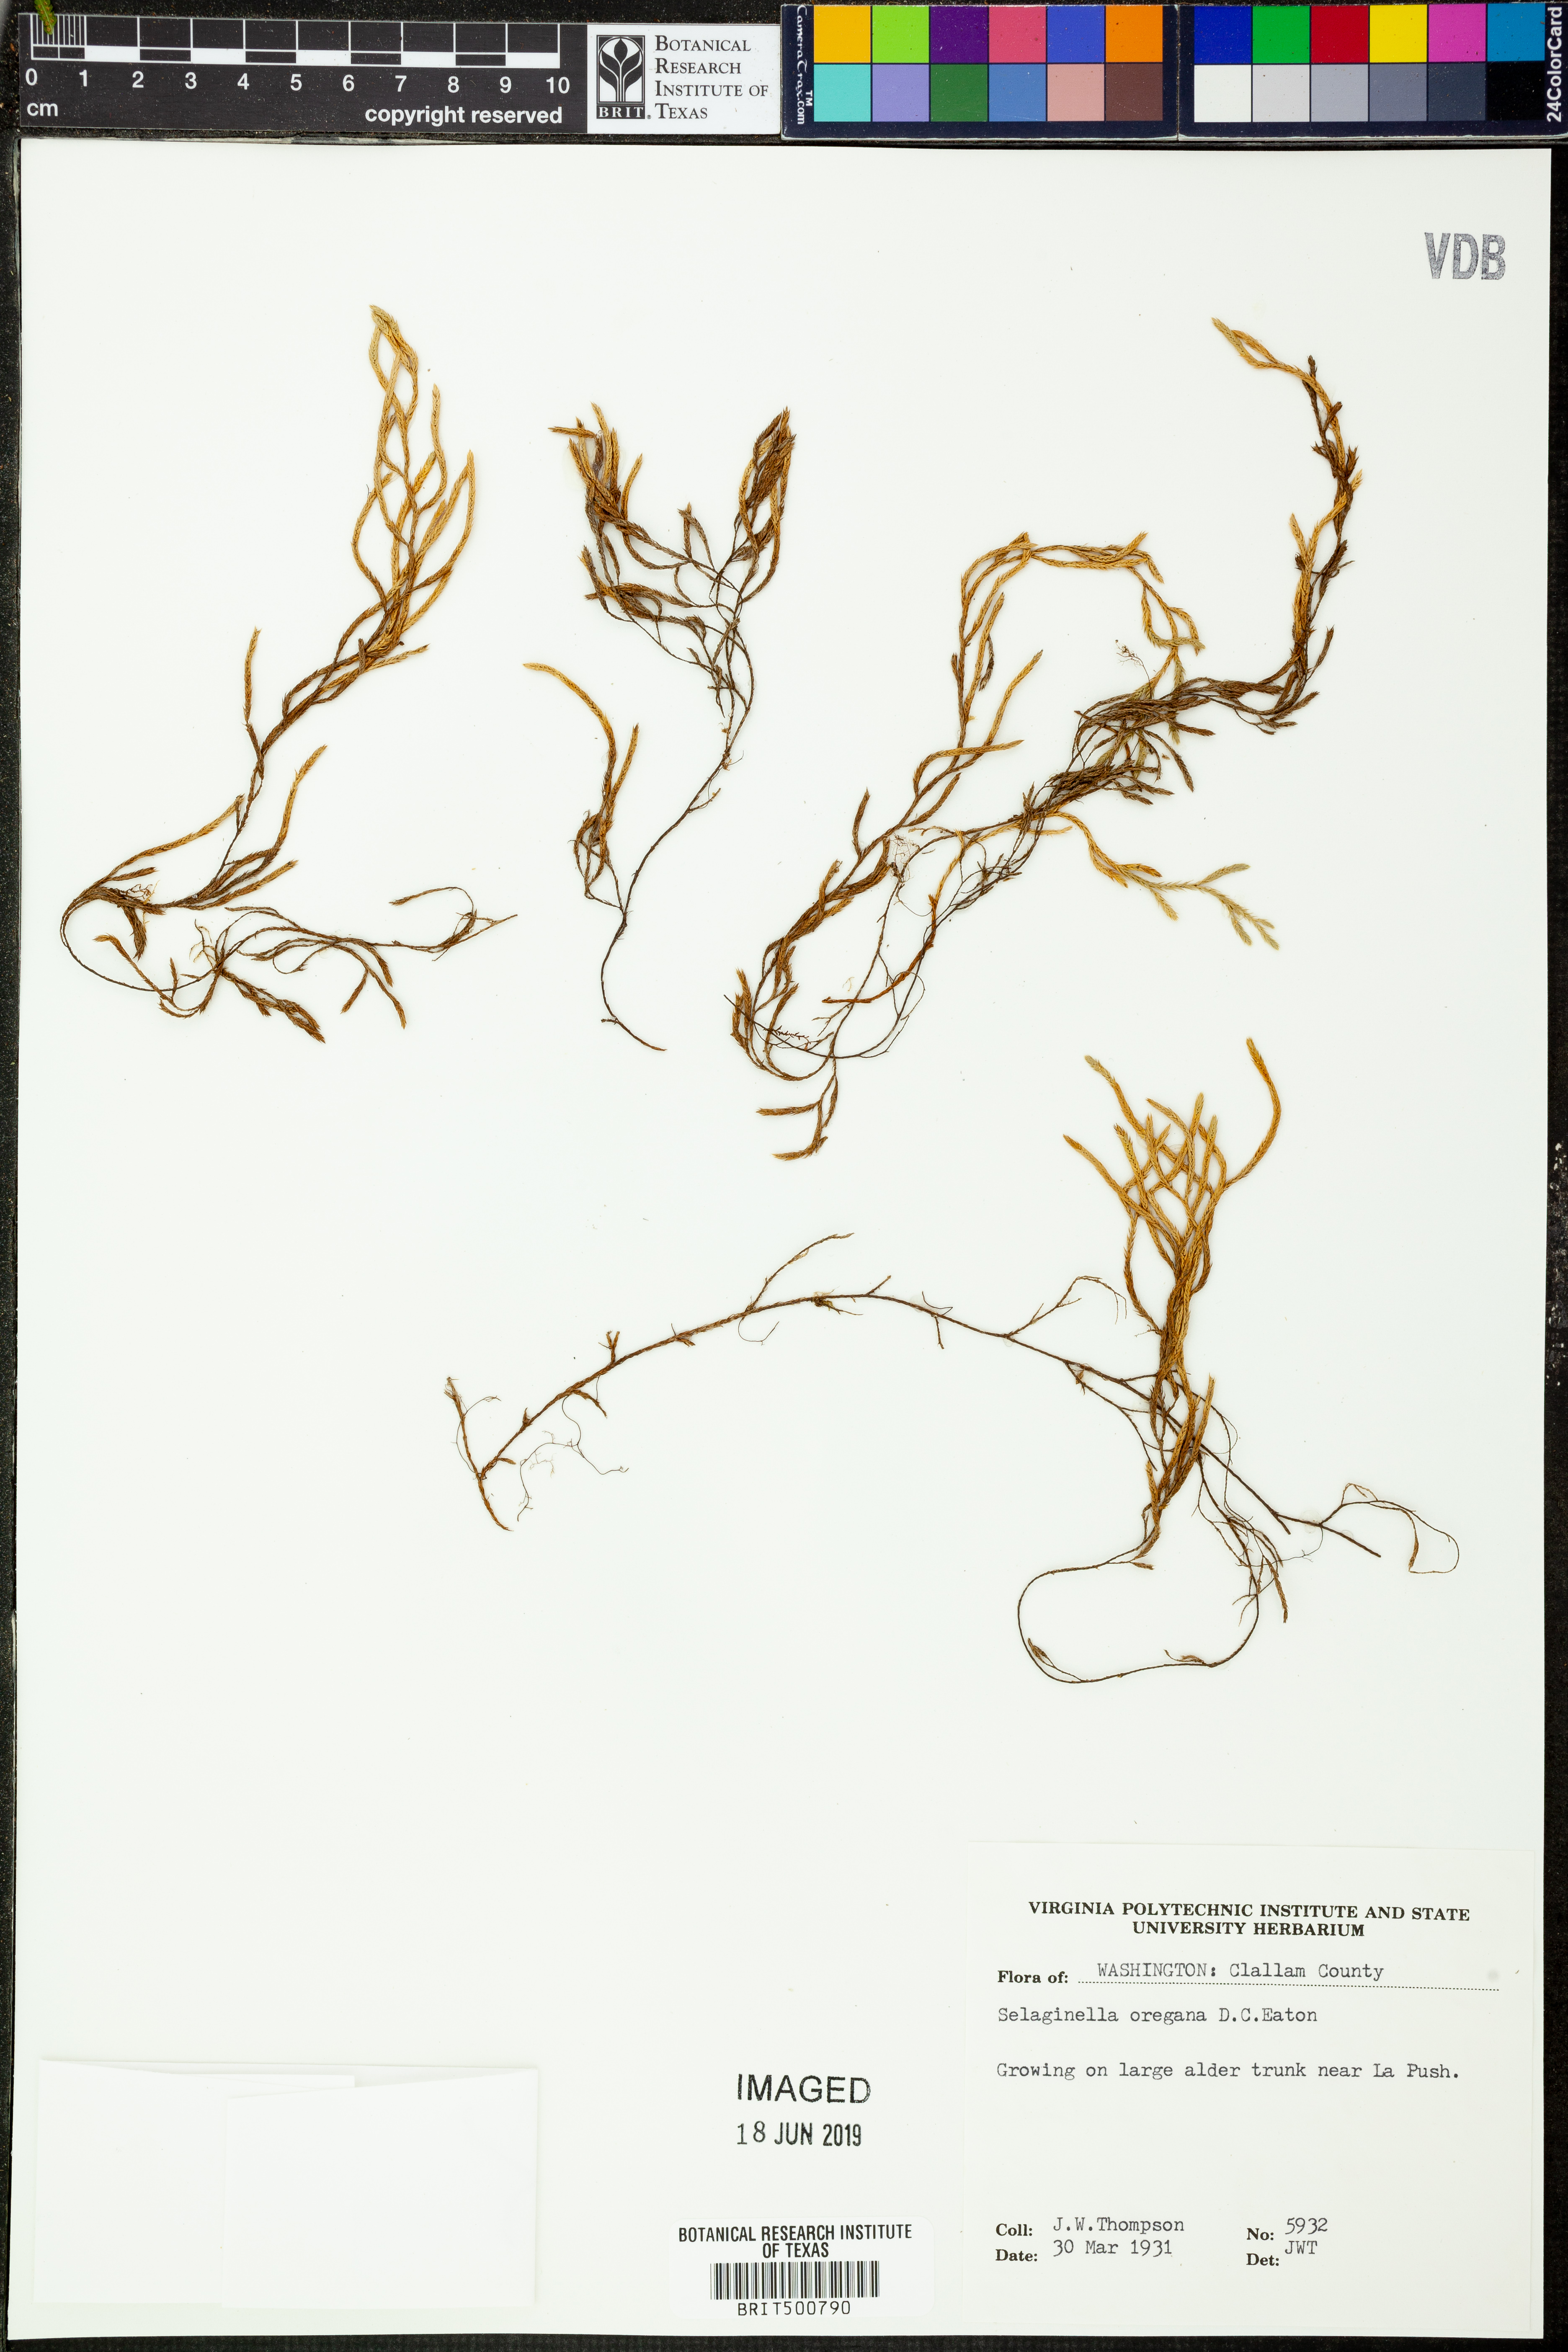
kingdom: Plantae
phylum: Tracheophyta
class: Lycopodiopsida
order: Selaginellales
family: Selaginellaceae
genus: Selaginella
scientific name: Selaginella oregana
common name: Oregon selaginella
